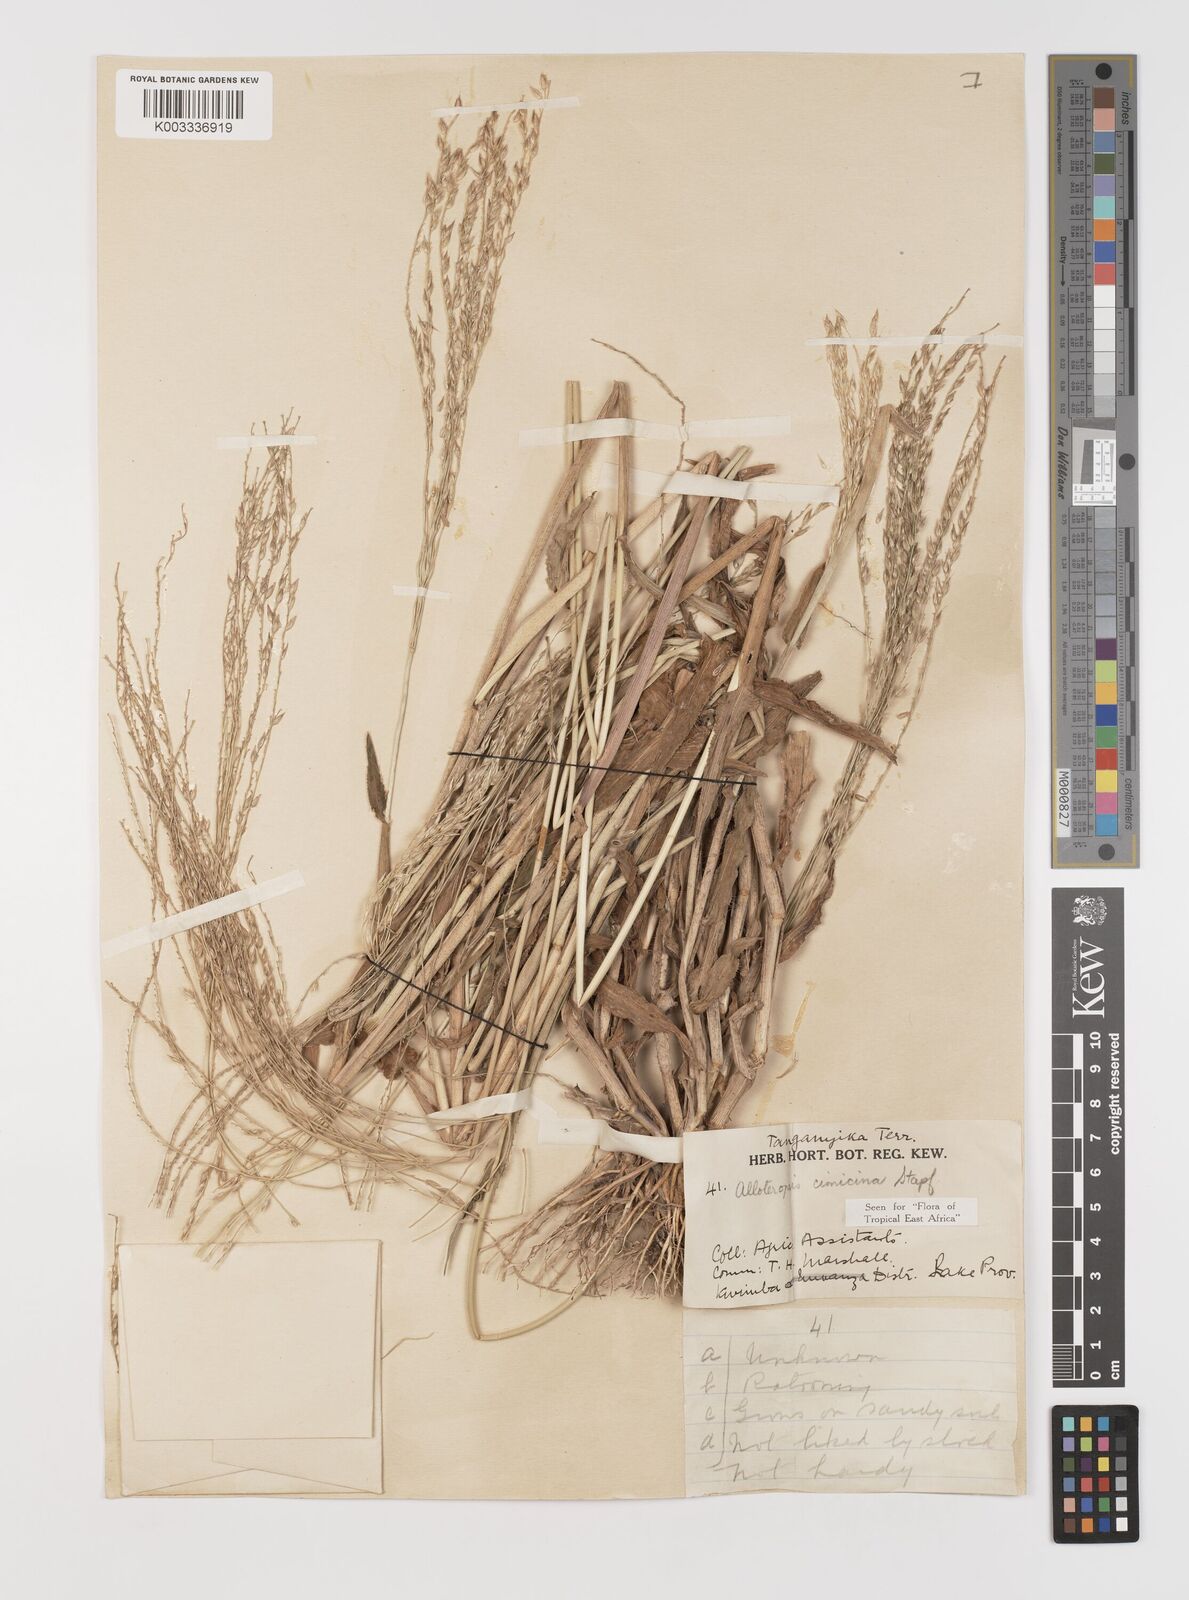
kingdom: Plantae
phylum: Tracheophyta
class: Liliopsida
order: Poales
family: Poaceae
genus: Alloteropsis
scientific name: Alloteropsis cimicina
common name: Summergrass
